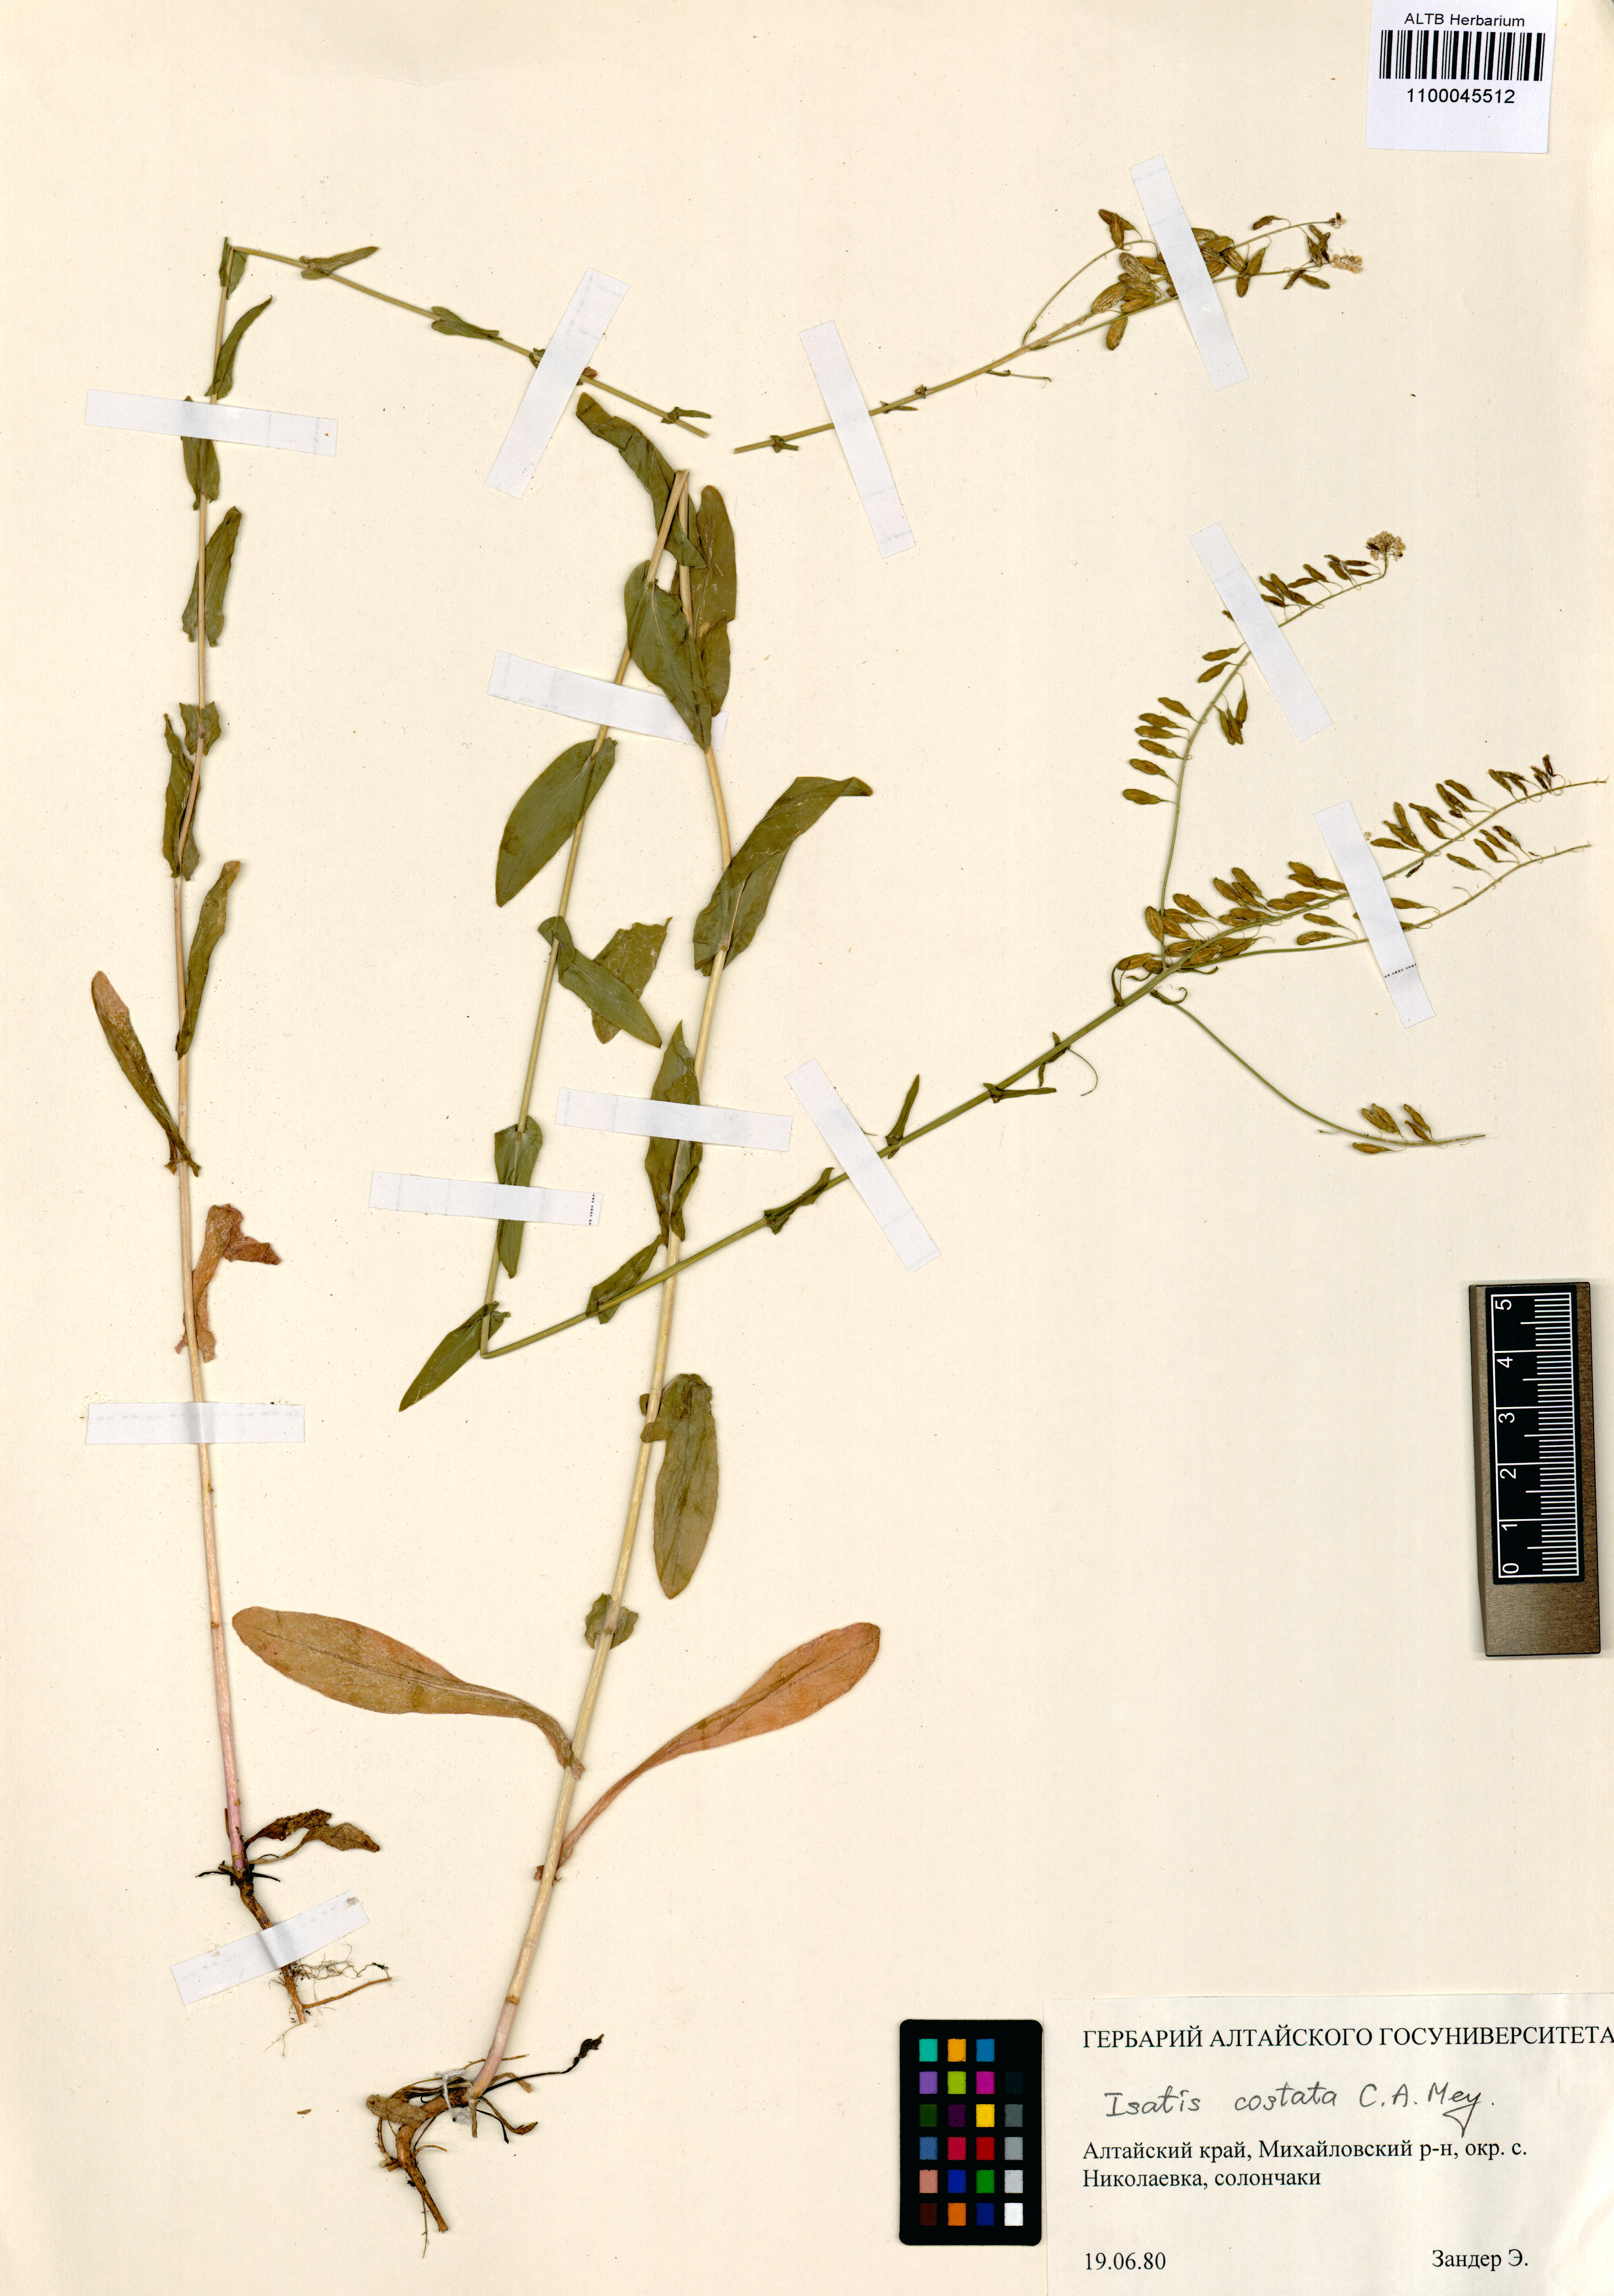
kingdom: Plantae
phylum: Tracheophyta
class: Magnoliopsida
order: Brassicales
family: Brassicaceae
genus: Isatis
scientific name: Isatis costata
